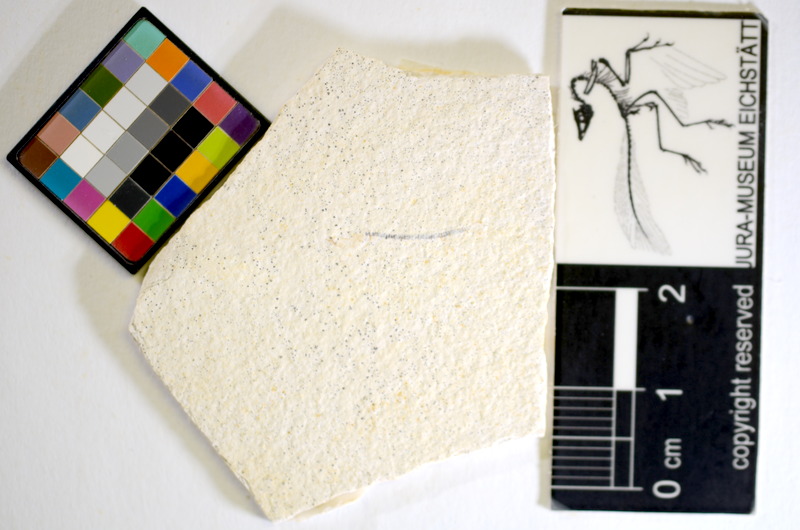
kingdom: Animalia
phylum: Chordata
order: Salmoniformes
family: Orthogonikleithridae
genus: Orthogonikleithrus
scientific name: Orthogonikleithrus hoelli
